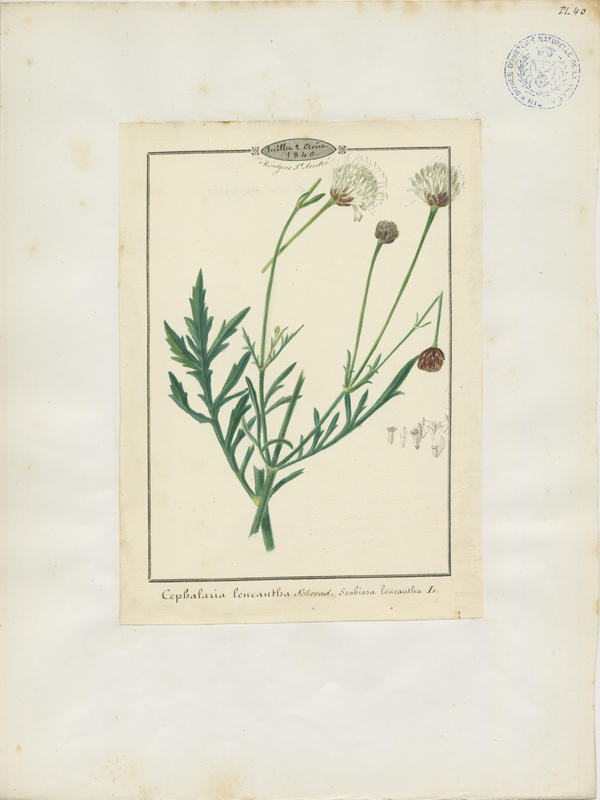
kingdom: Plantae
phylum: Tracheophyta
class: Magnoliopsida
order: Dipsacales
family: Dipsacaceae
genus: Cephalaria
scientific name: Cephalaria leucantha
